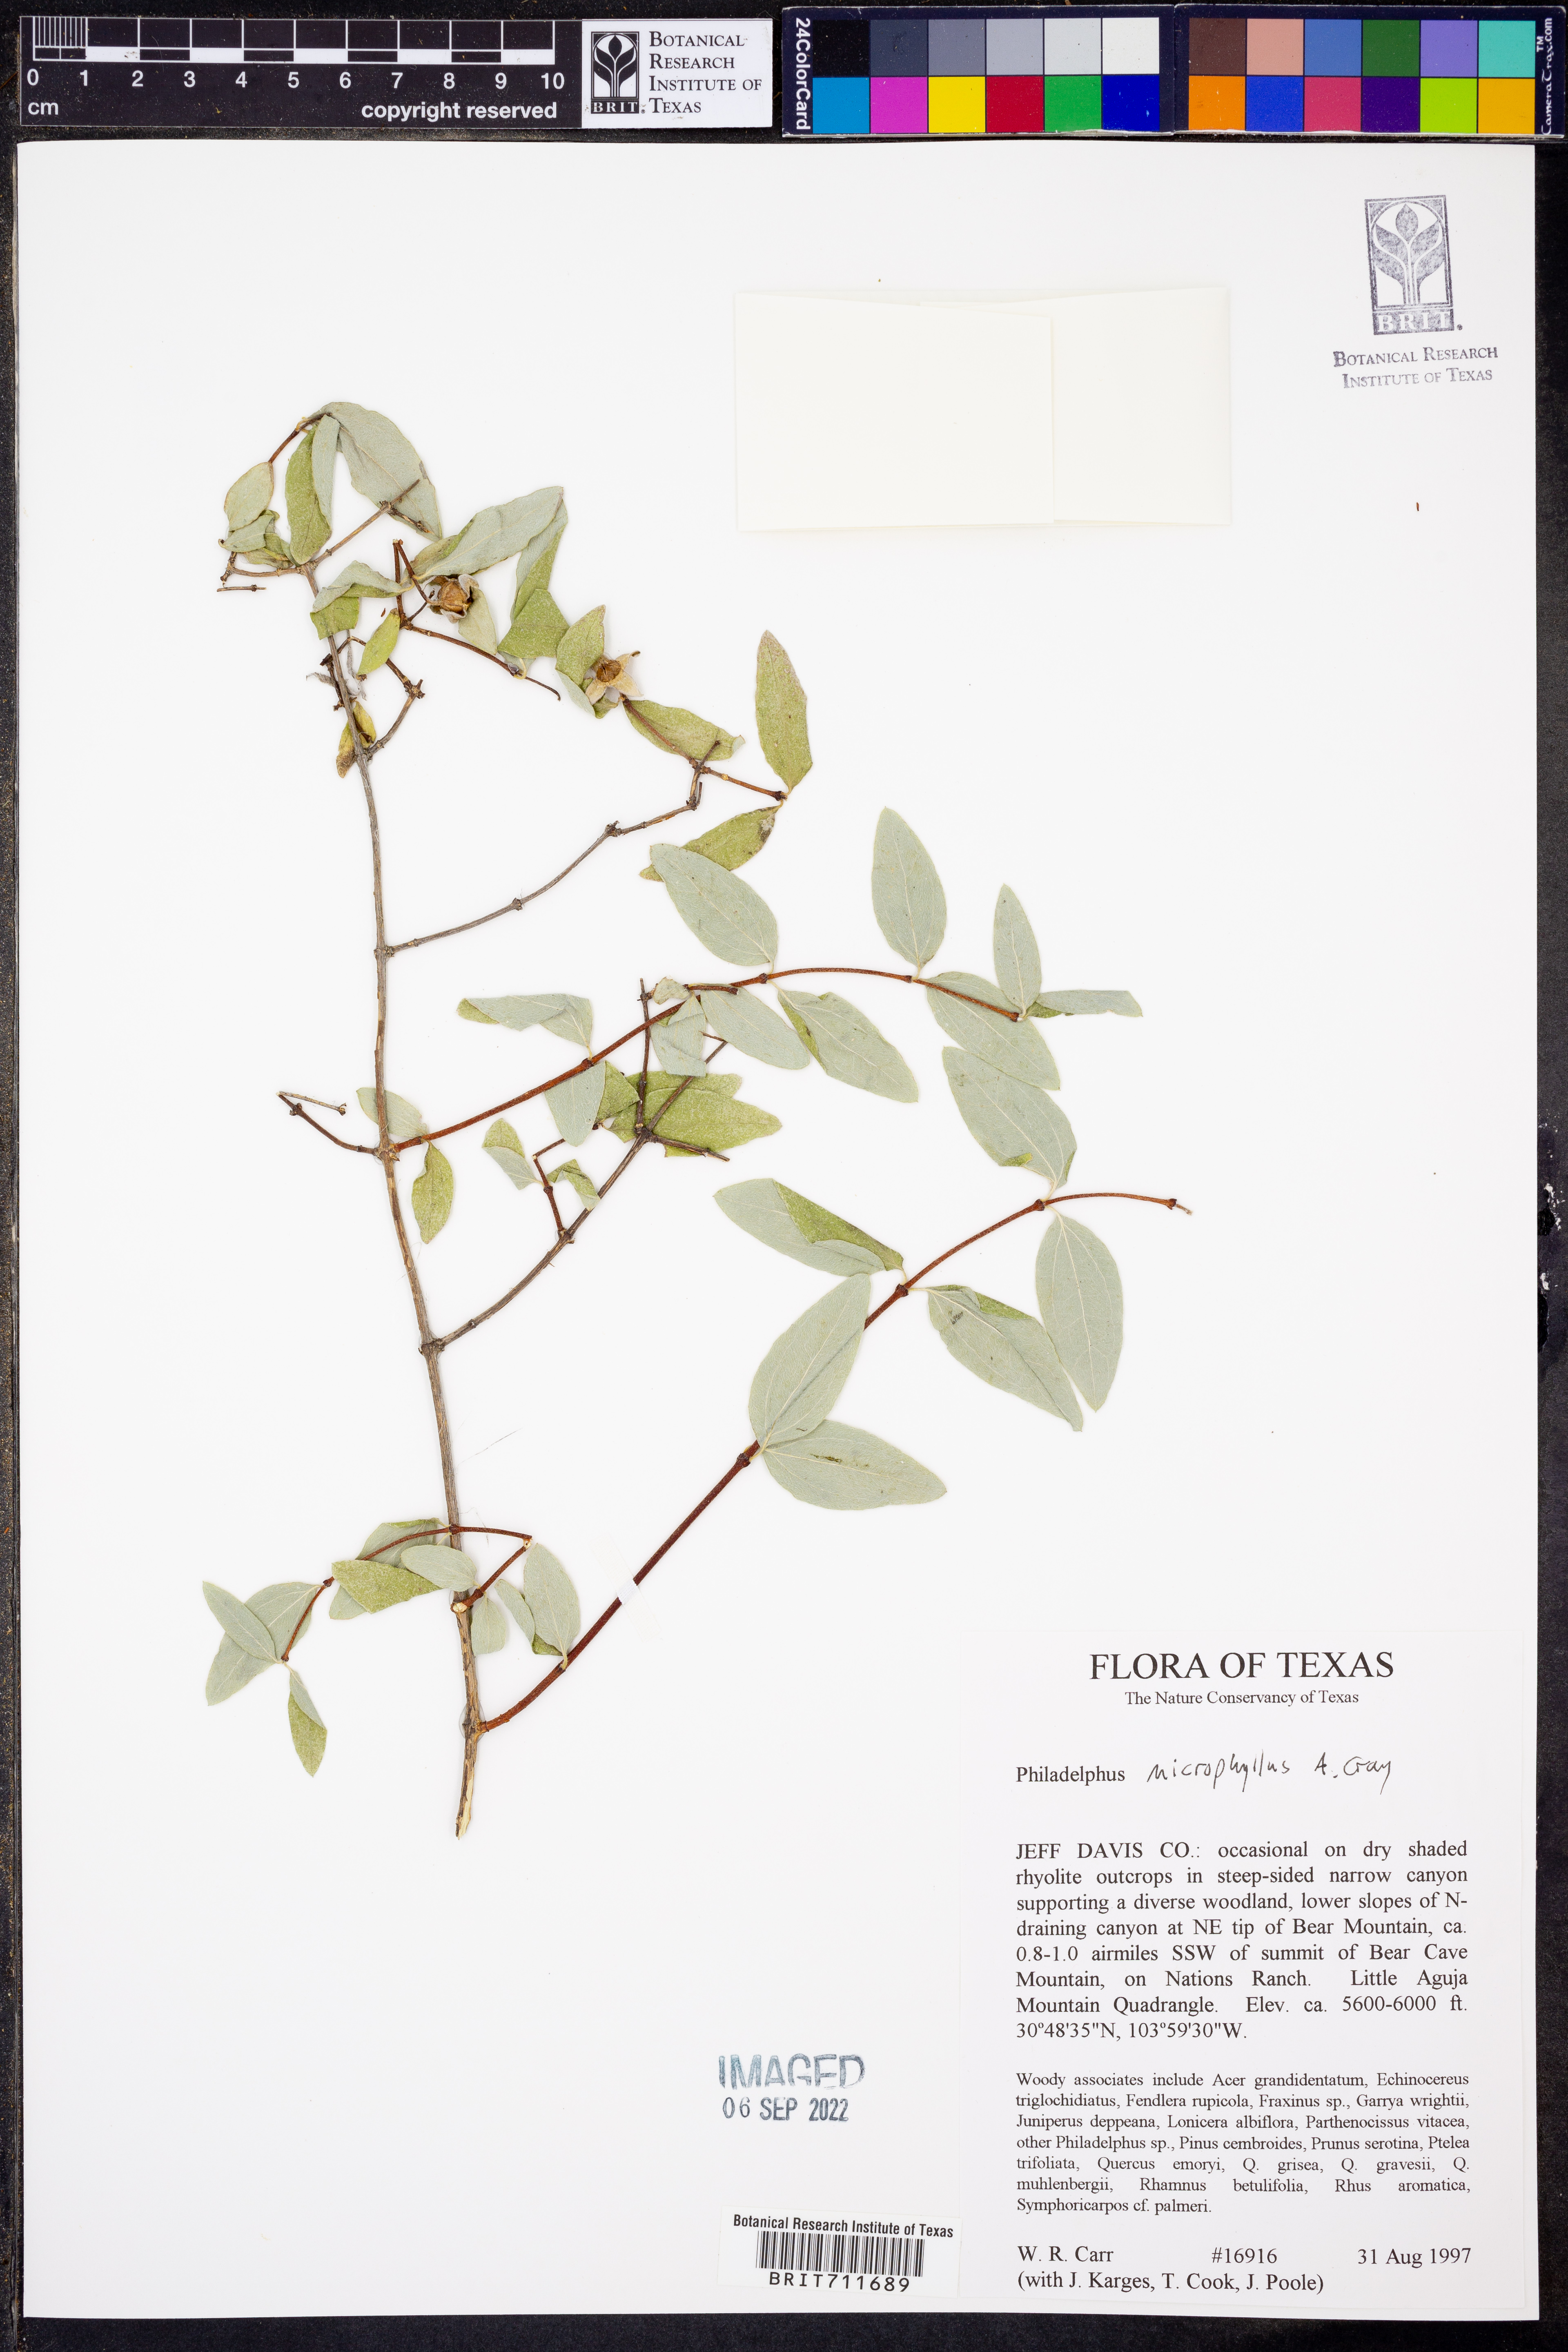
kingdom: Plantae
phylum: Tracheophyta
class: Magnoliopsida
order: Cornales
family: Hydrangeaceae
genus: Philadelphus
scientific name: Philadelphus microphyllus
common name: Desert mock orange
